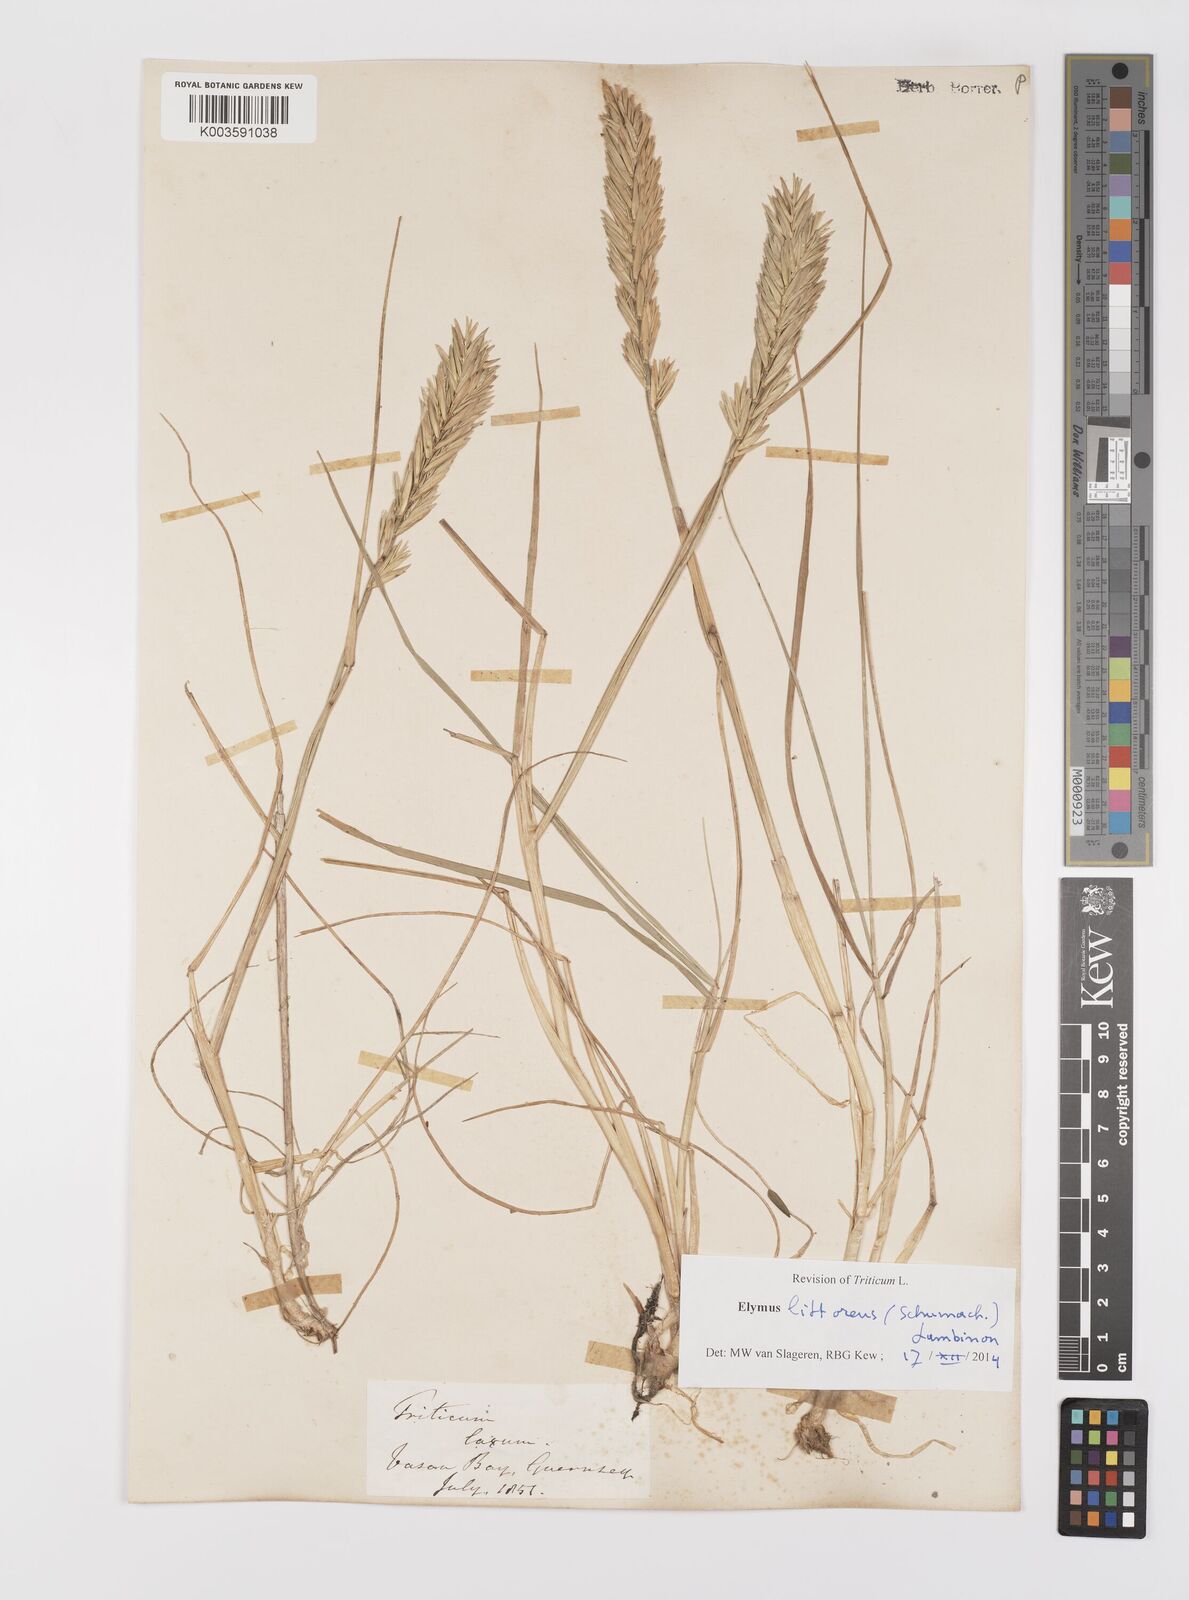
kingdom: Plantae
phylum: Tracheophyta
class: Liliopsida
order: Poales
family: Poaceae
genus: Leymus
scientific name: Leymus
